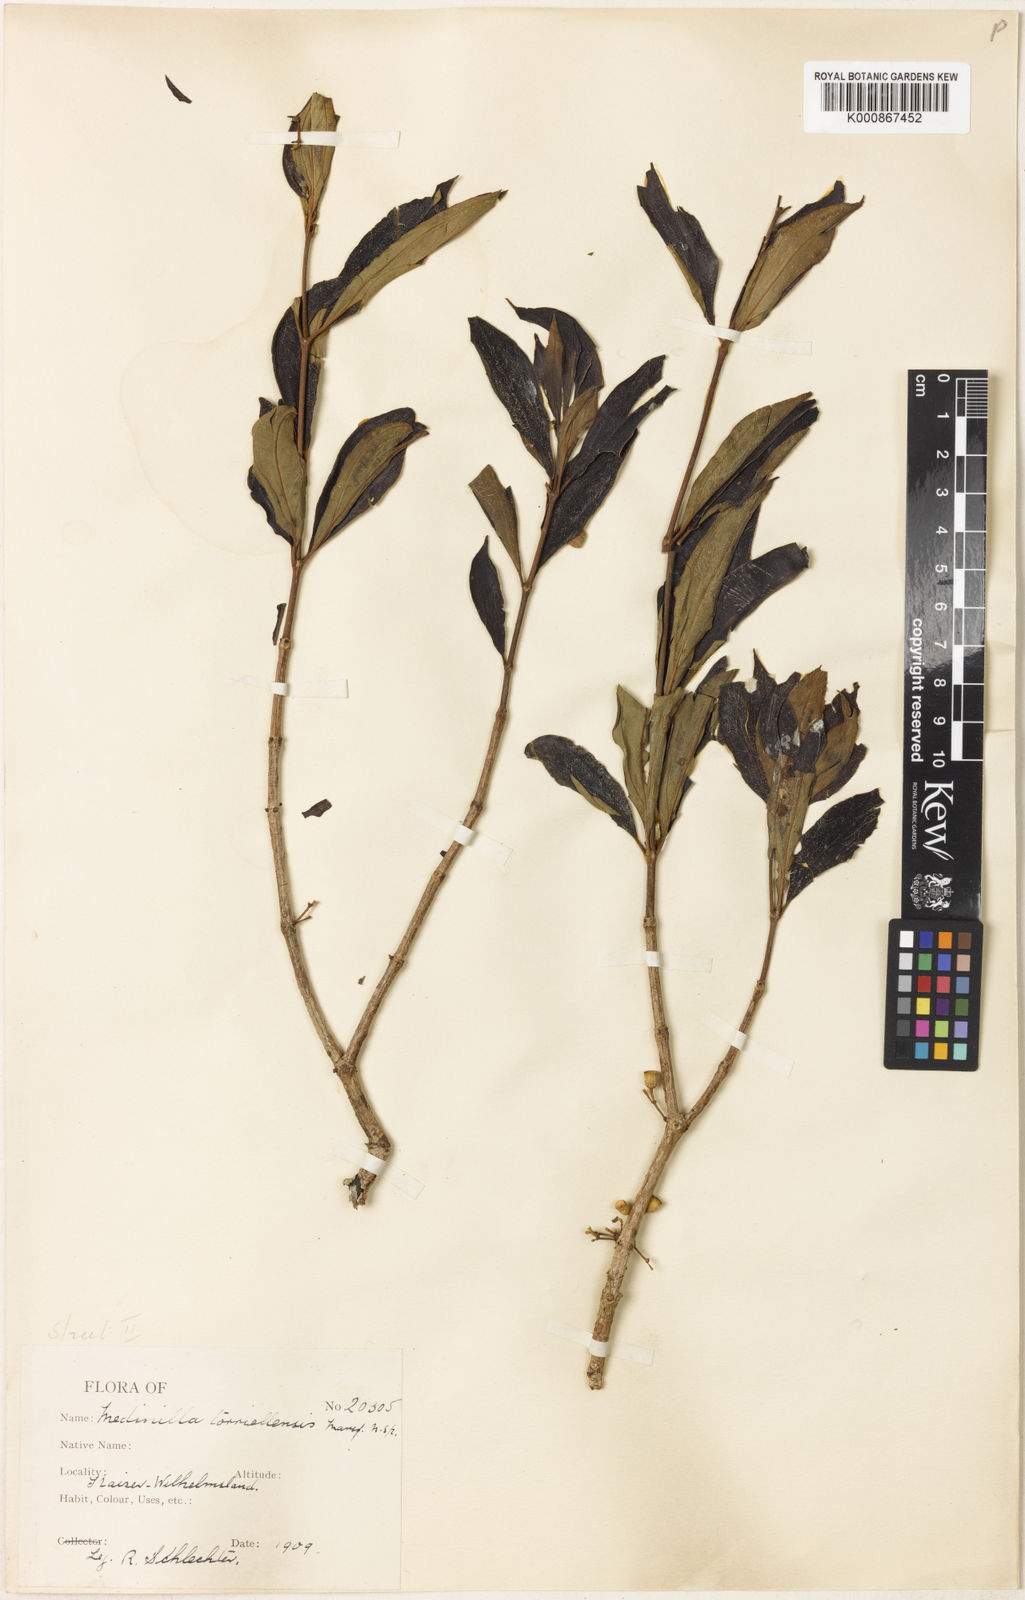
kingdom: Plantae
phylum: Tracheophyta
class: Magnoliopsida
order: Myrtales
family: Melastomataceae
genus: Medinilla
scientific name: Medinilla torricellensis
